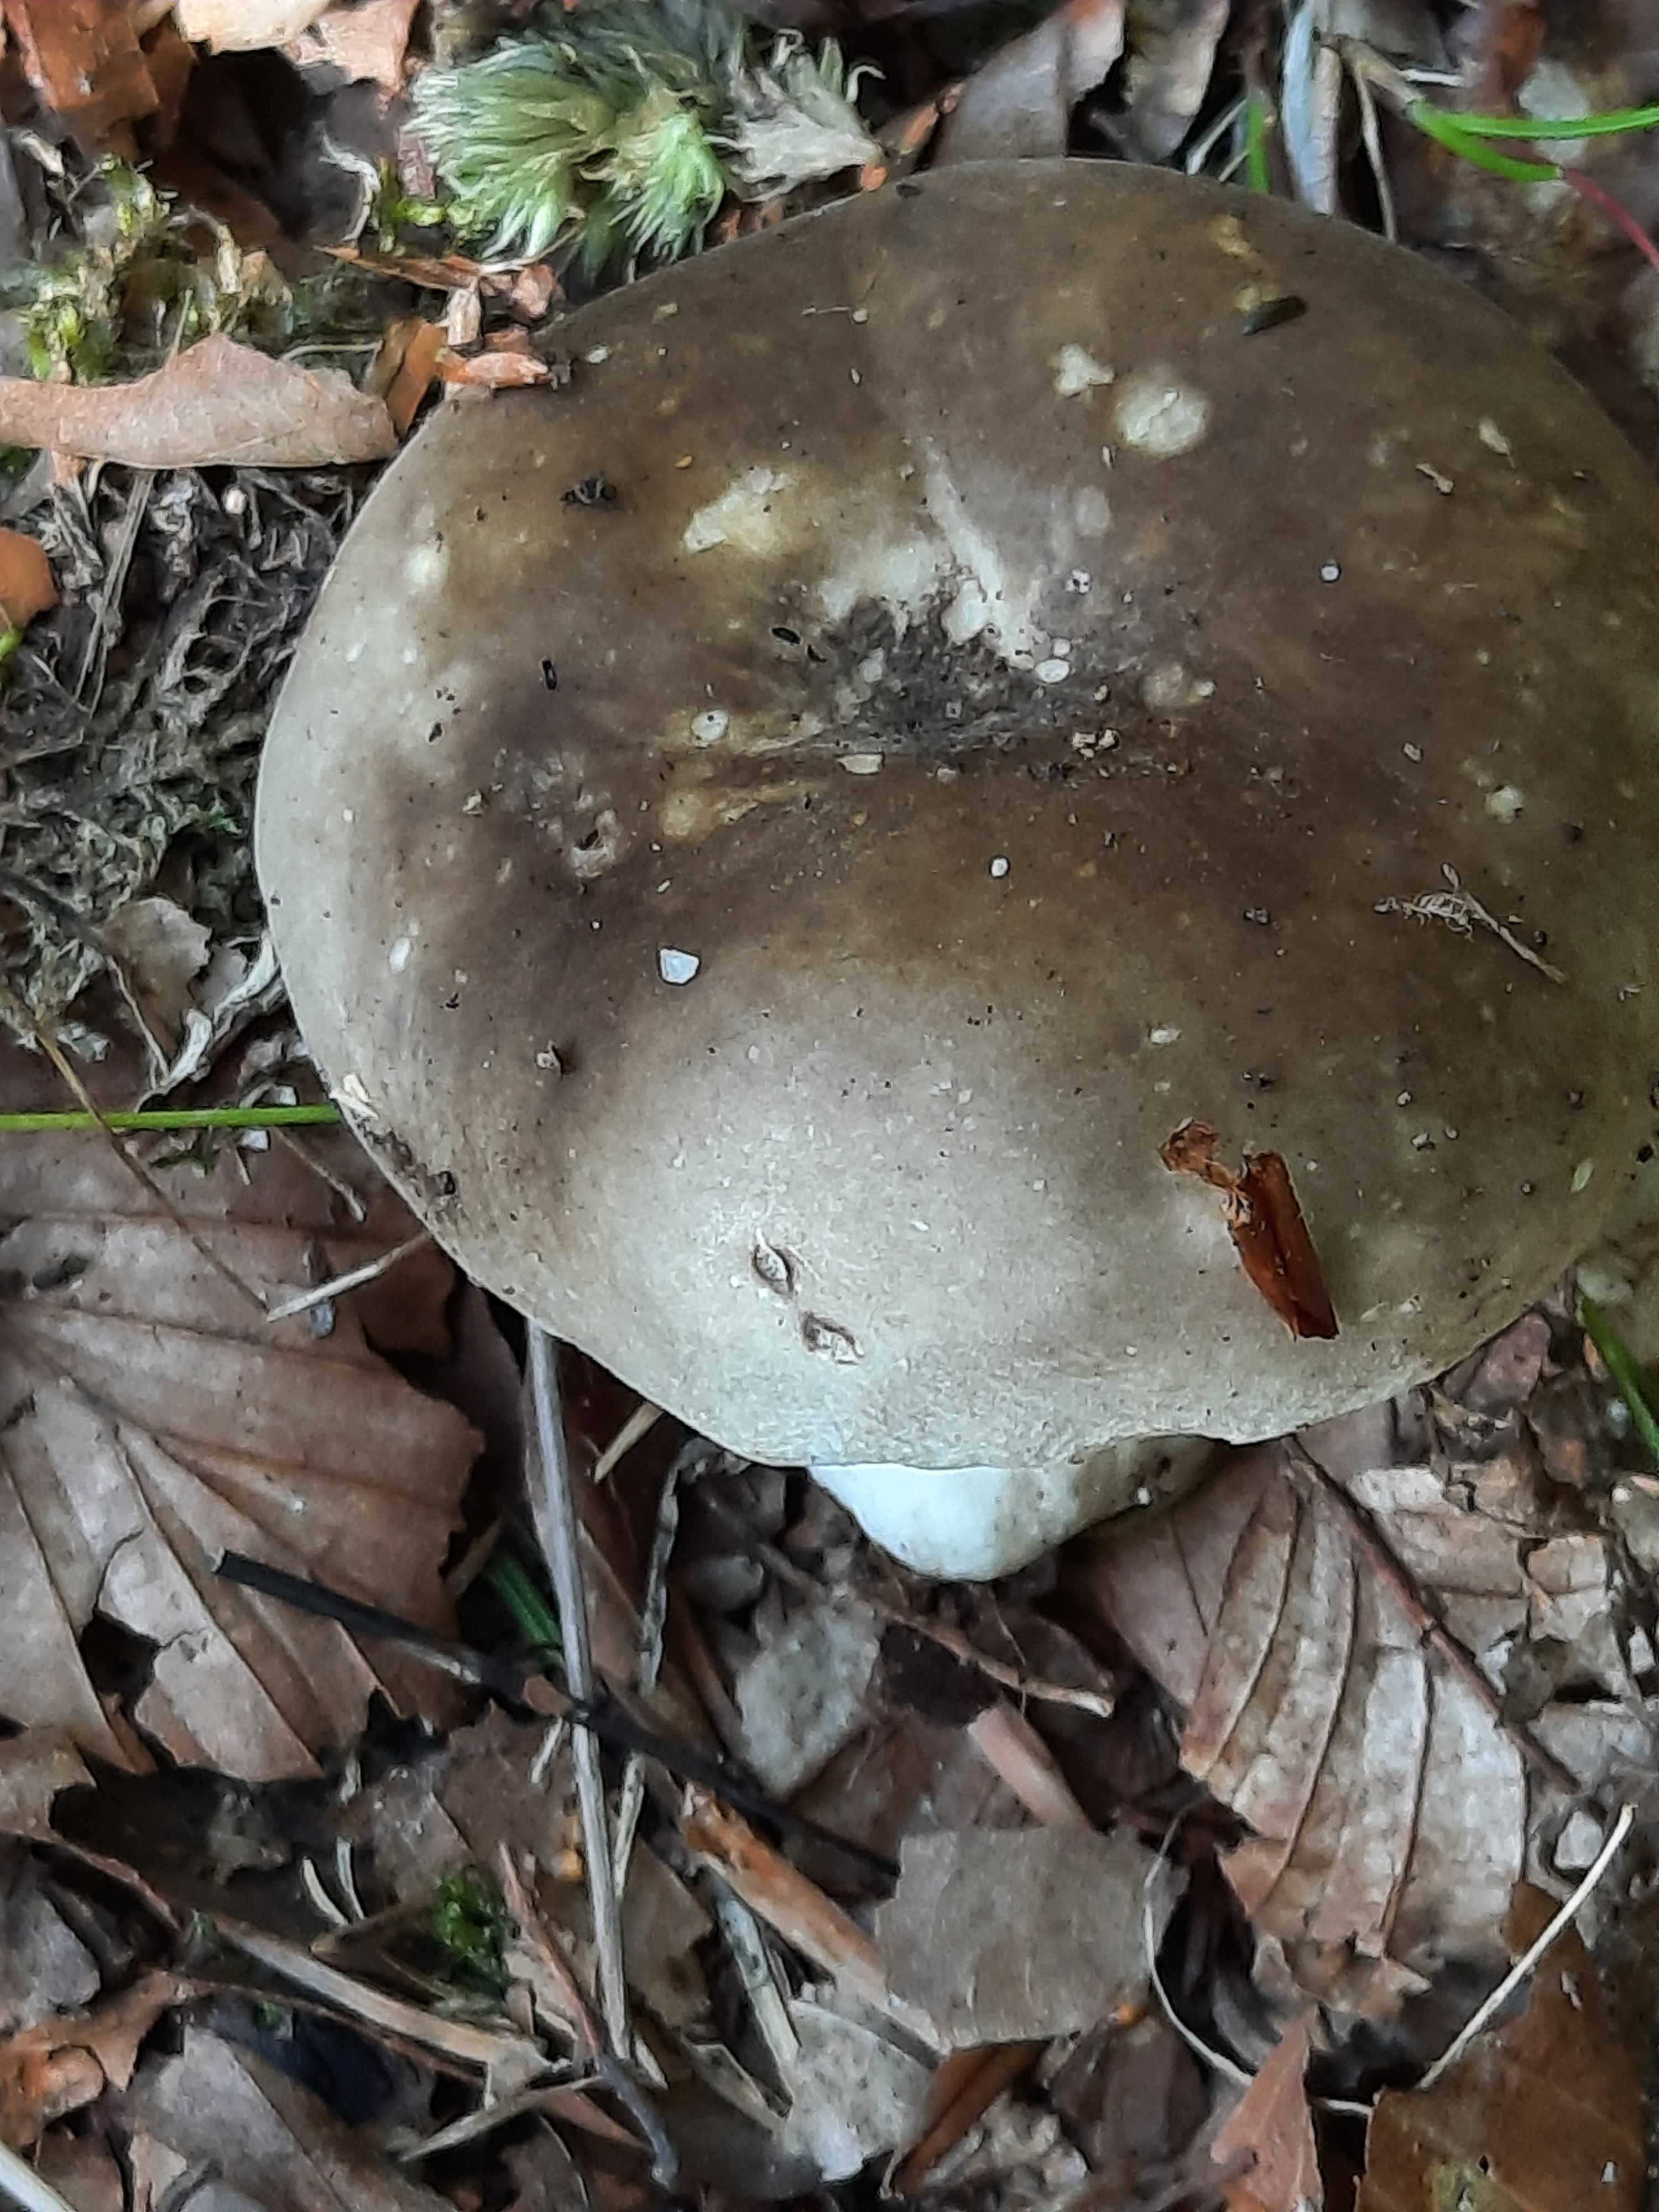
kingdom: Fungi
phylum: Basidiomycota
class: Agaricomycetes
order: Russulales
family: Russulaceae
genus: Russula
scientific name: Russula densifolia
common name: tætbladet skørhat
